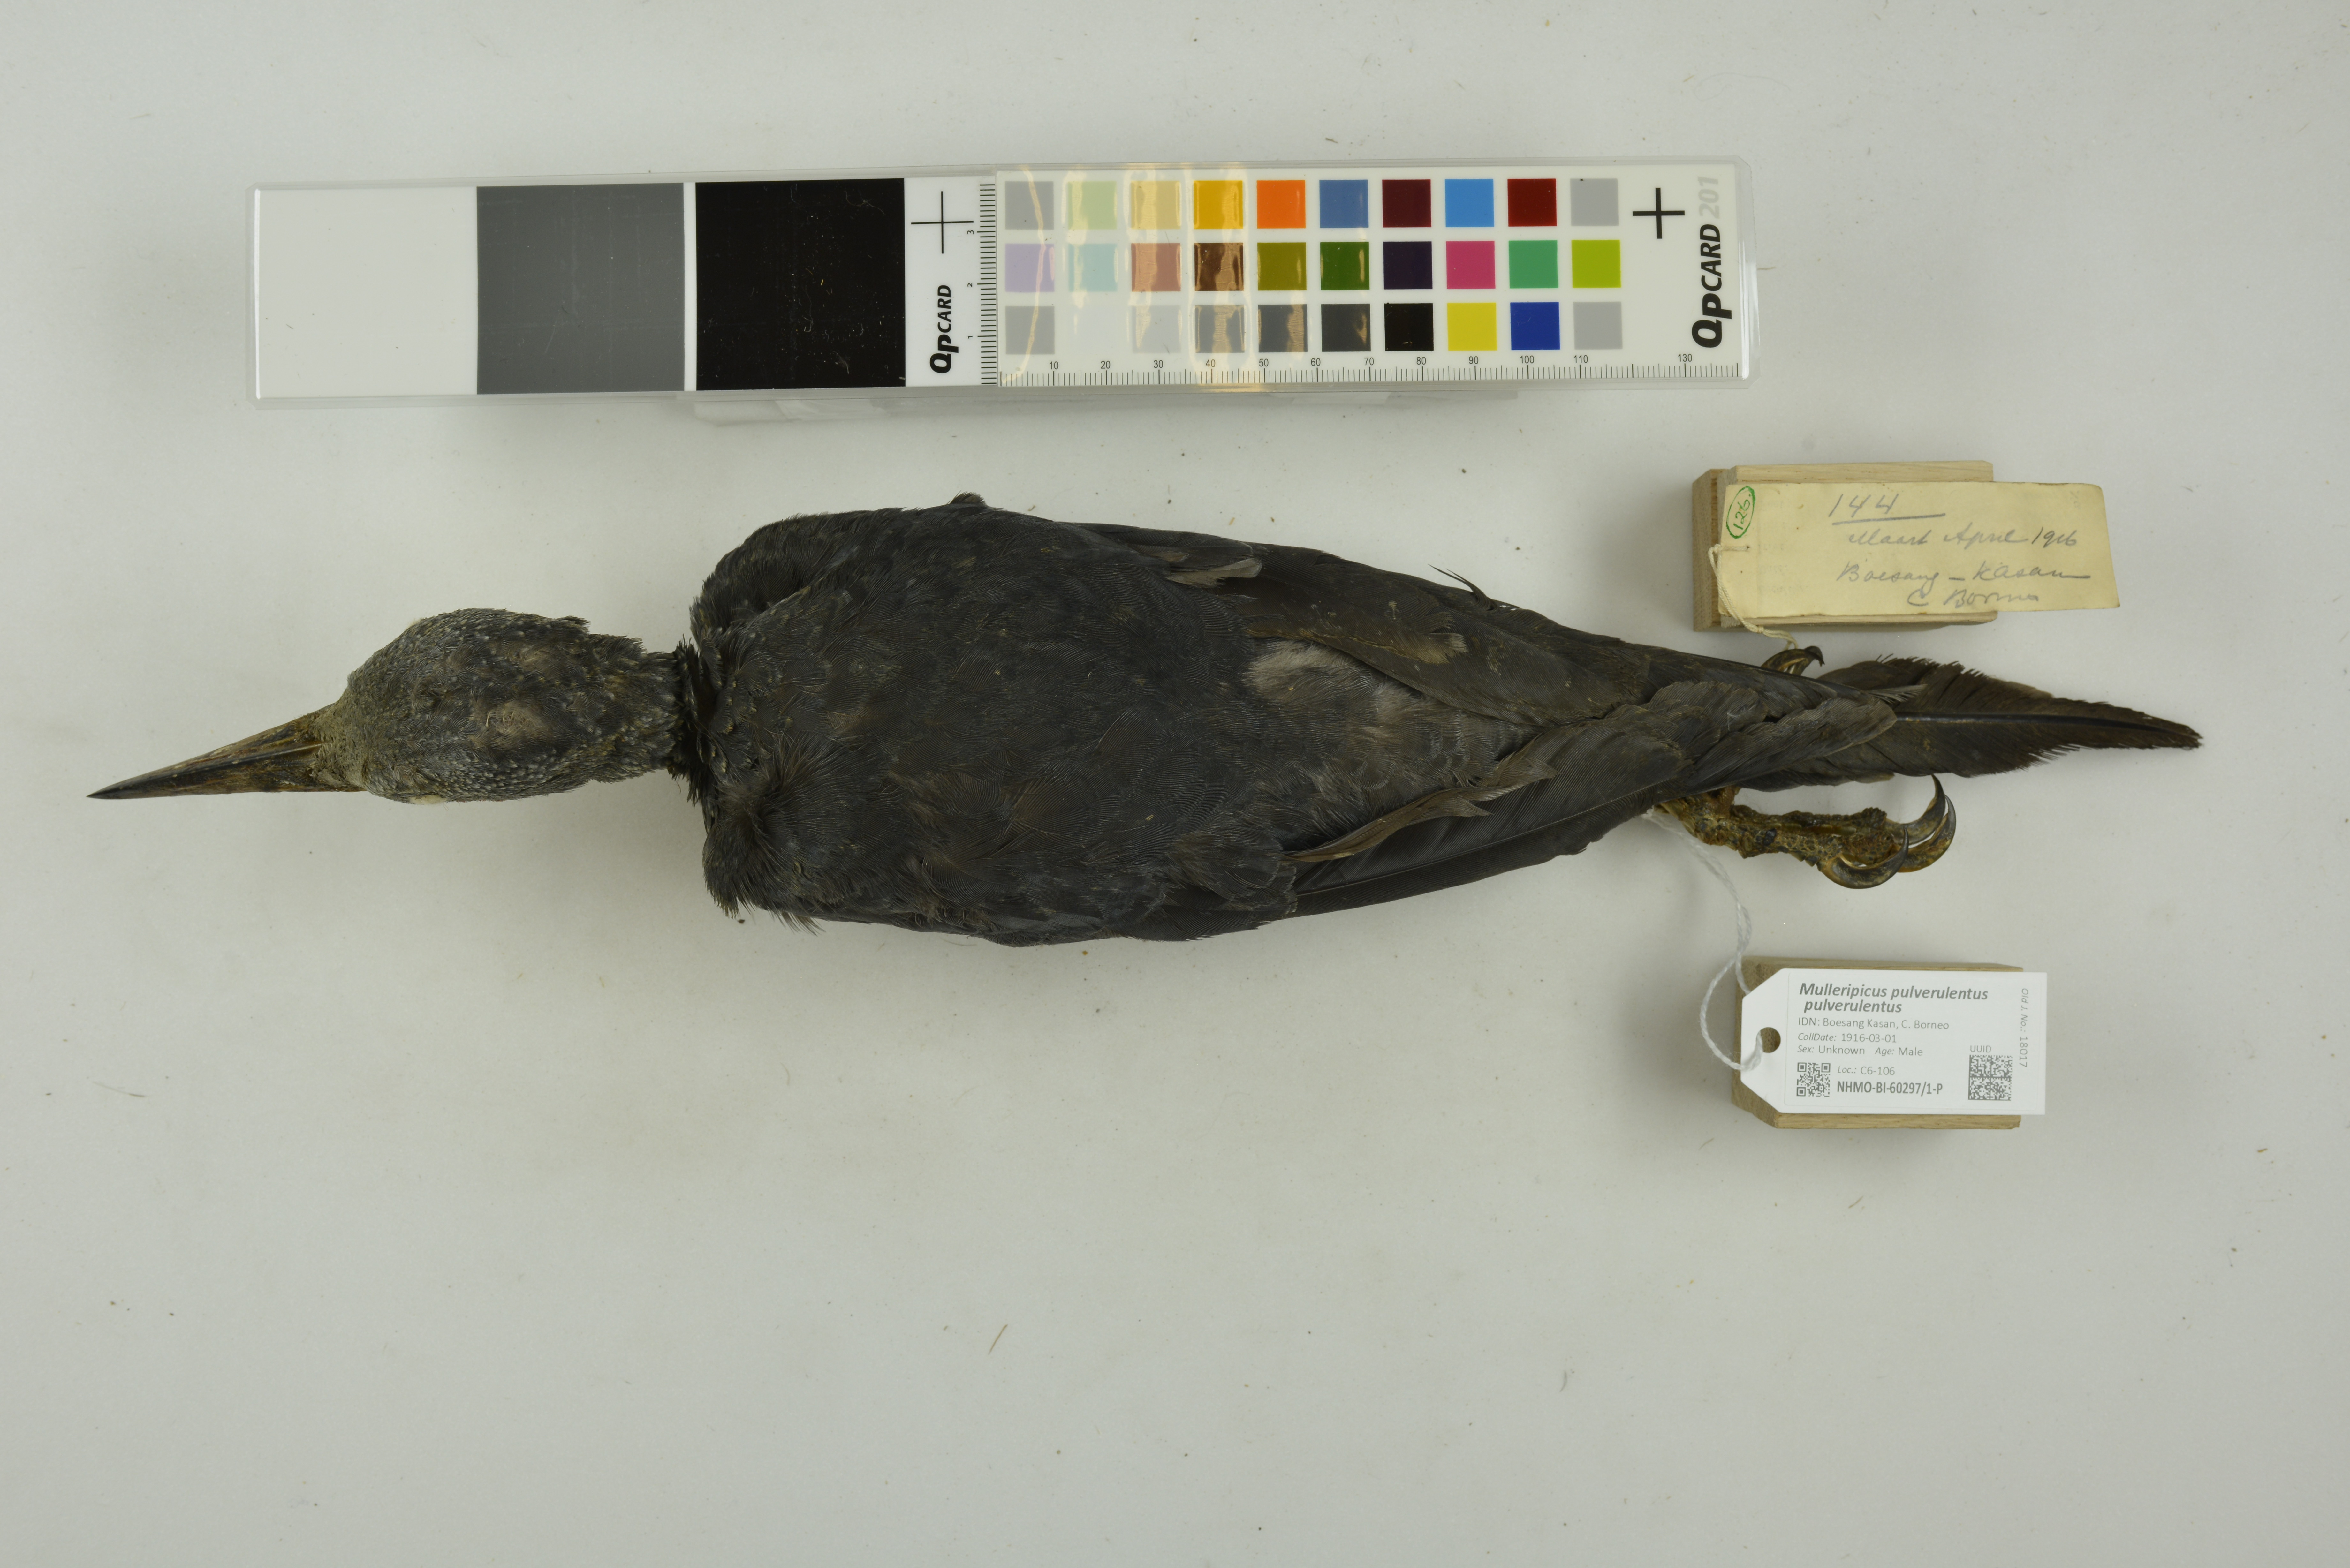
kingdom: Animalia
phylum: Chordata
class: Aves
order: Piciformes
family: Picidae
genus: Mulleripicus
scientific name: Mulleripicus pulverulentus
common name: Great slaty woodpecker
